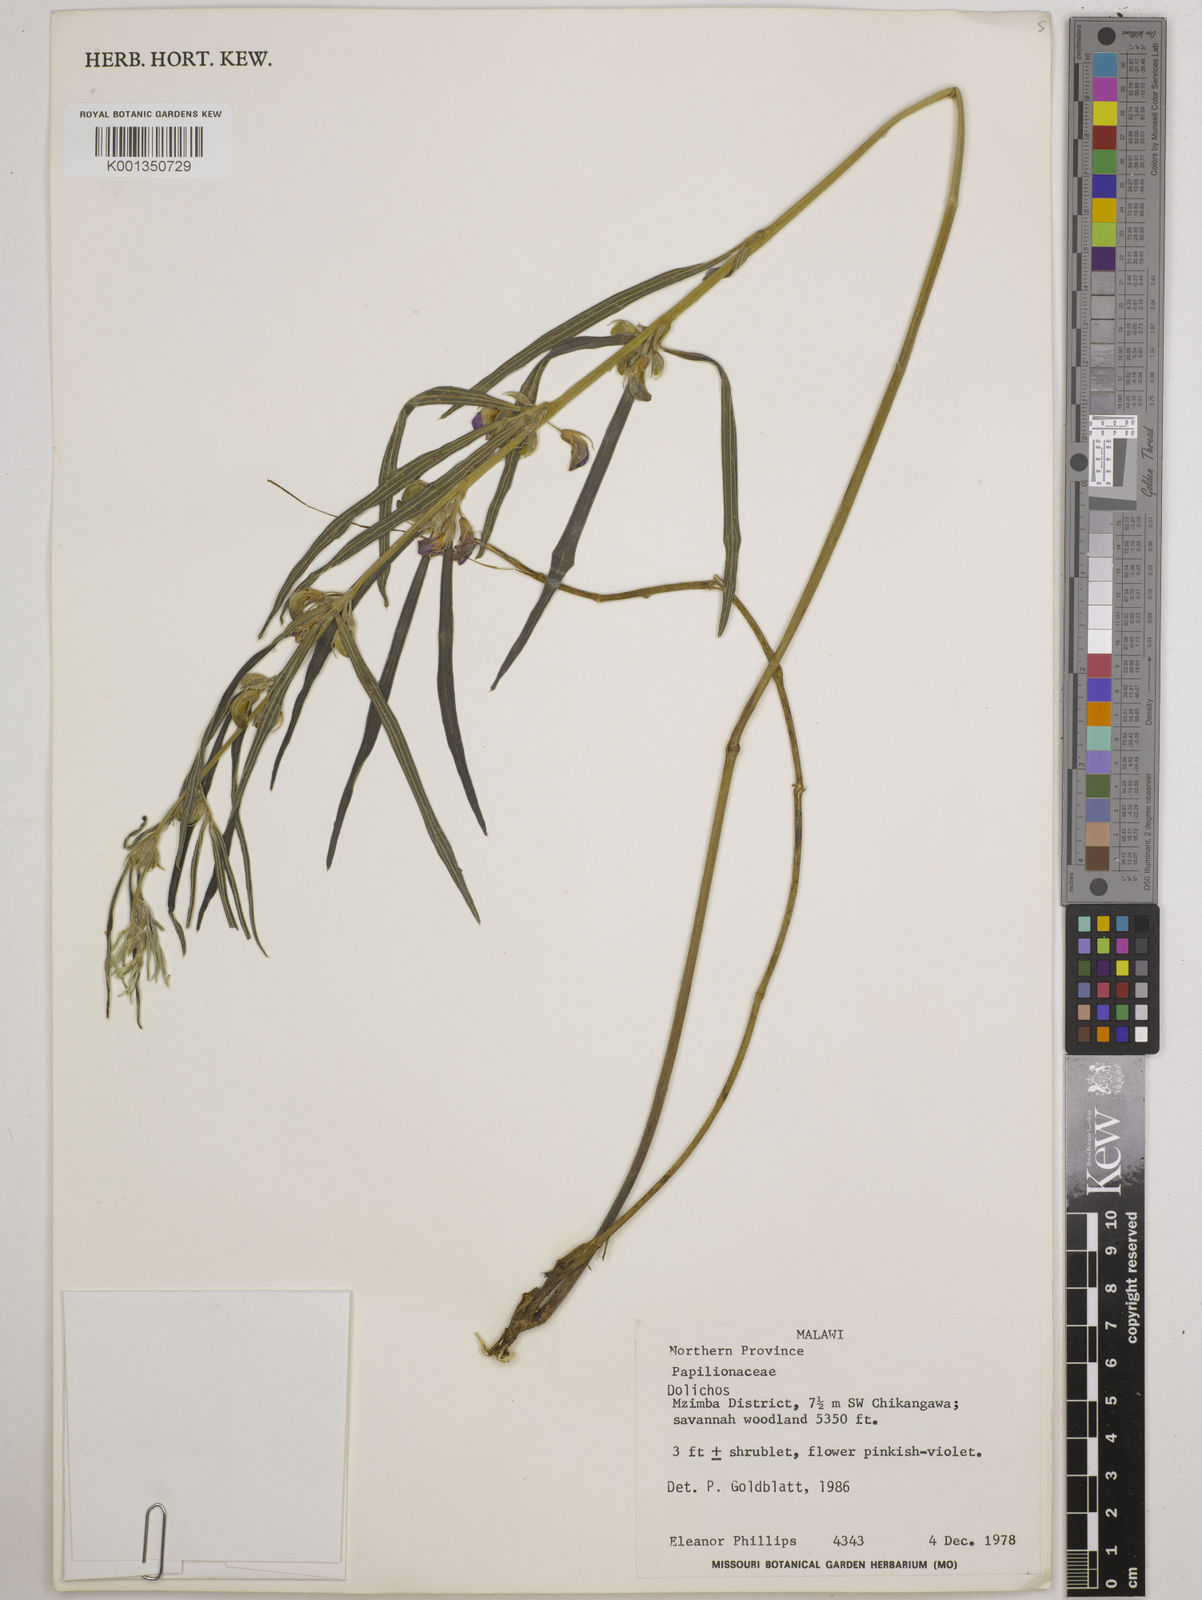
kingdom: Plantae
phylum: Tracheophyta
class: Magnoliopsida
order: Fabales
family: Fabaceae
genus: Dolichos
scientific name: Dolichos
